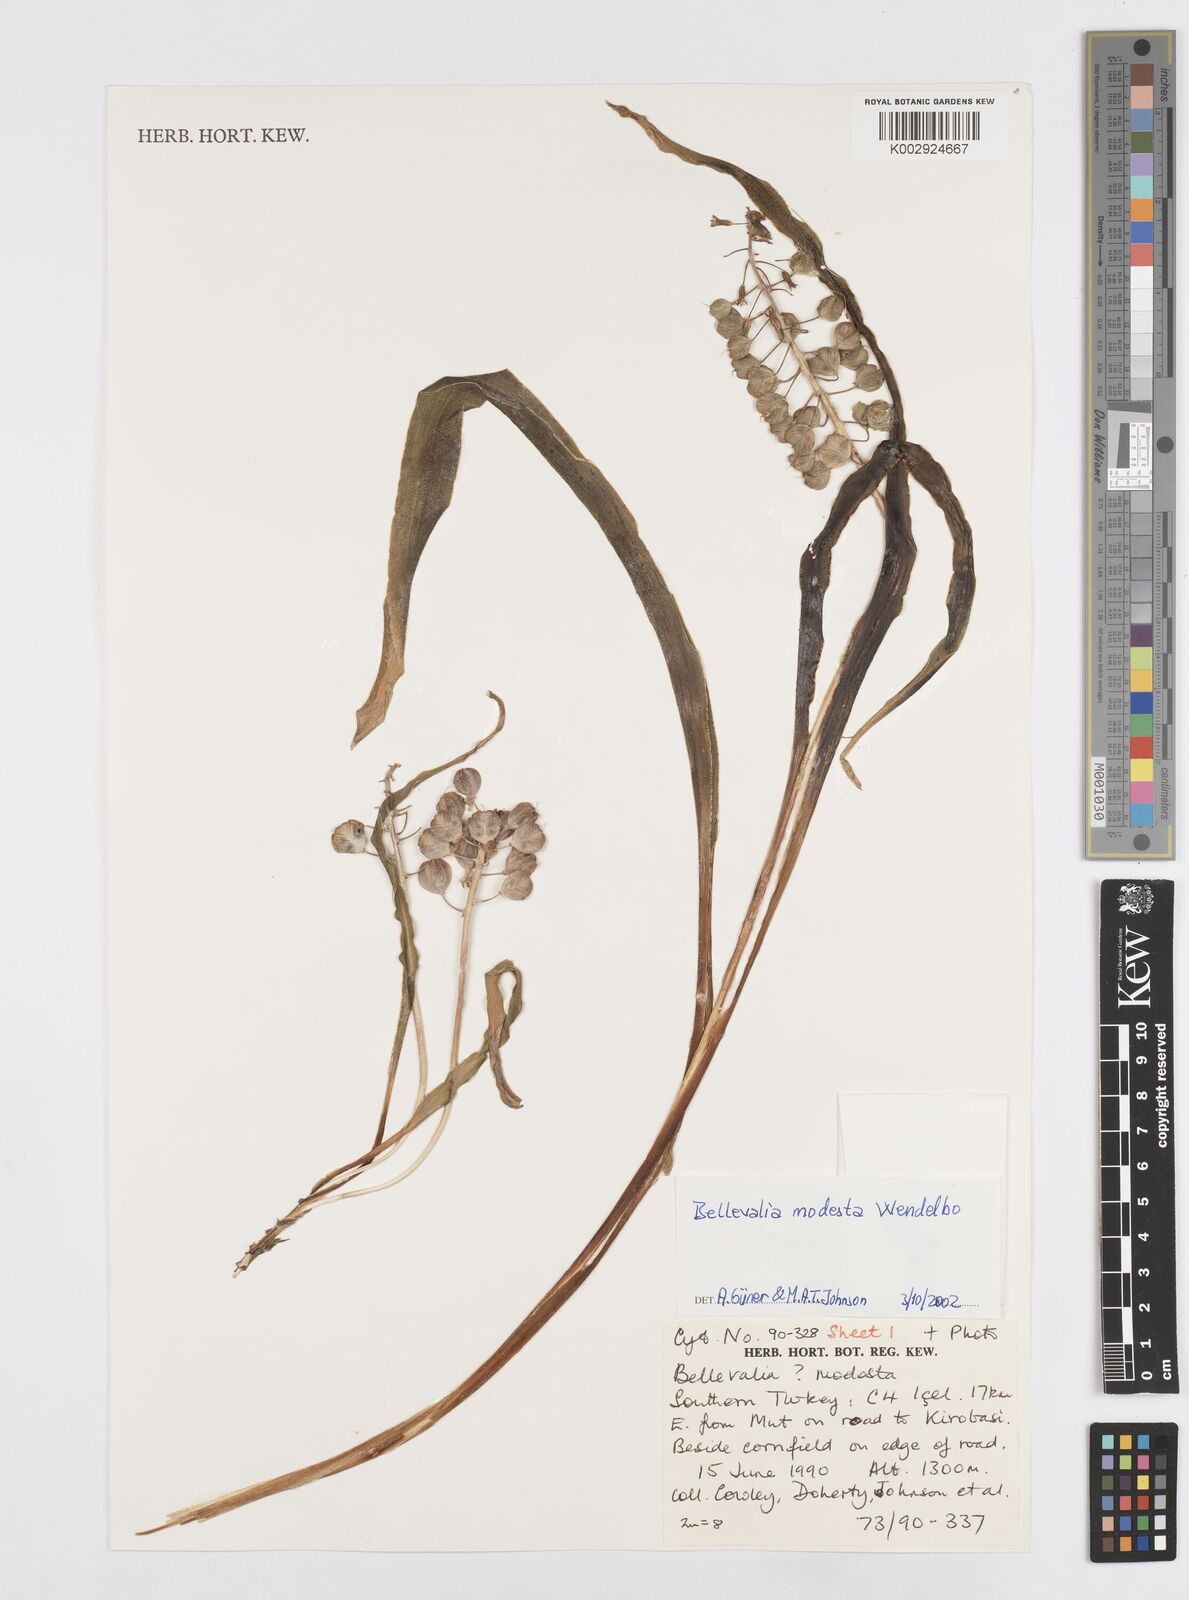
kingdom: Plantae
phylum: Tracheophyta
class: Liliopsida
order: Asparagales
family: Asparagaceae
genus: Bellevalia
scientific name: Bellevalia modesta
